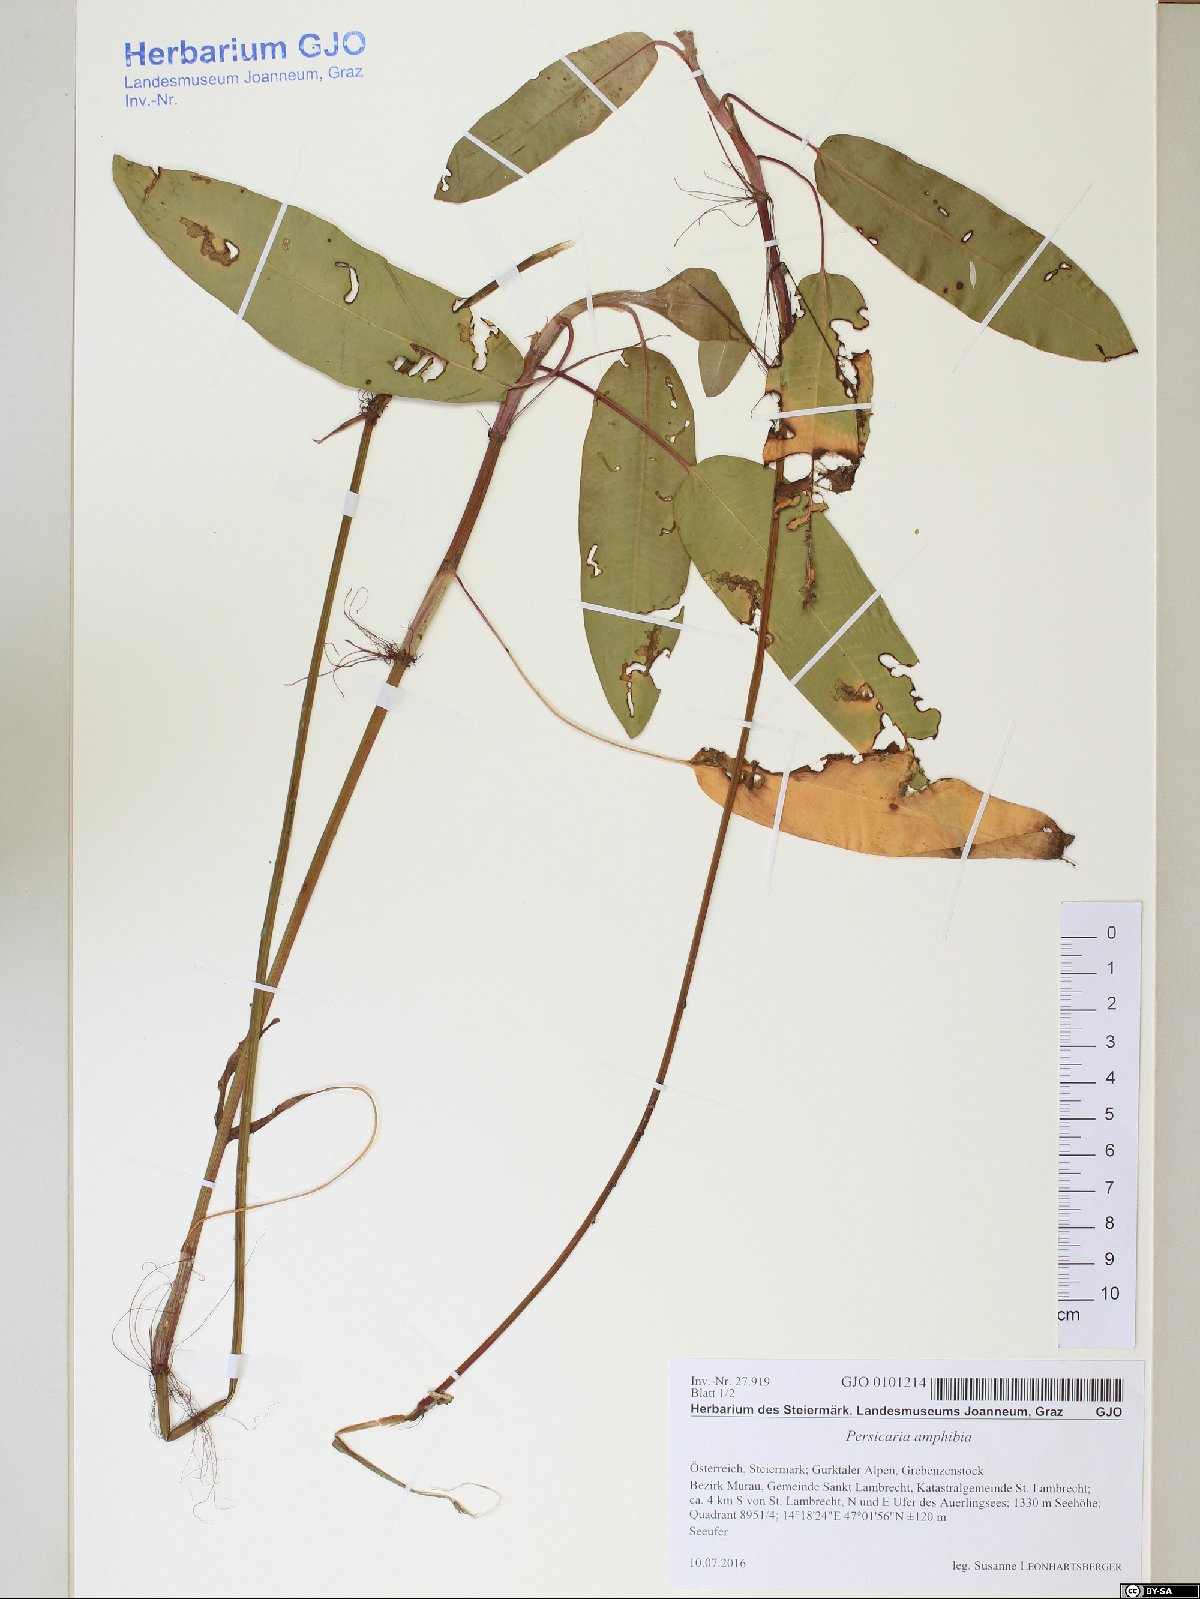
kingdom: Plantae
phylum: Tracheophyta
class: Magnoliopsida
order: Caryophyllales
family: Polygonaceae
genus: Persicaria
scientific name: Persicaria amphibia
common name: Amphibious bistort
